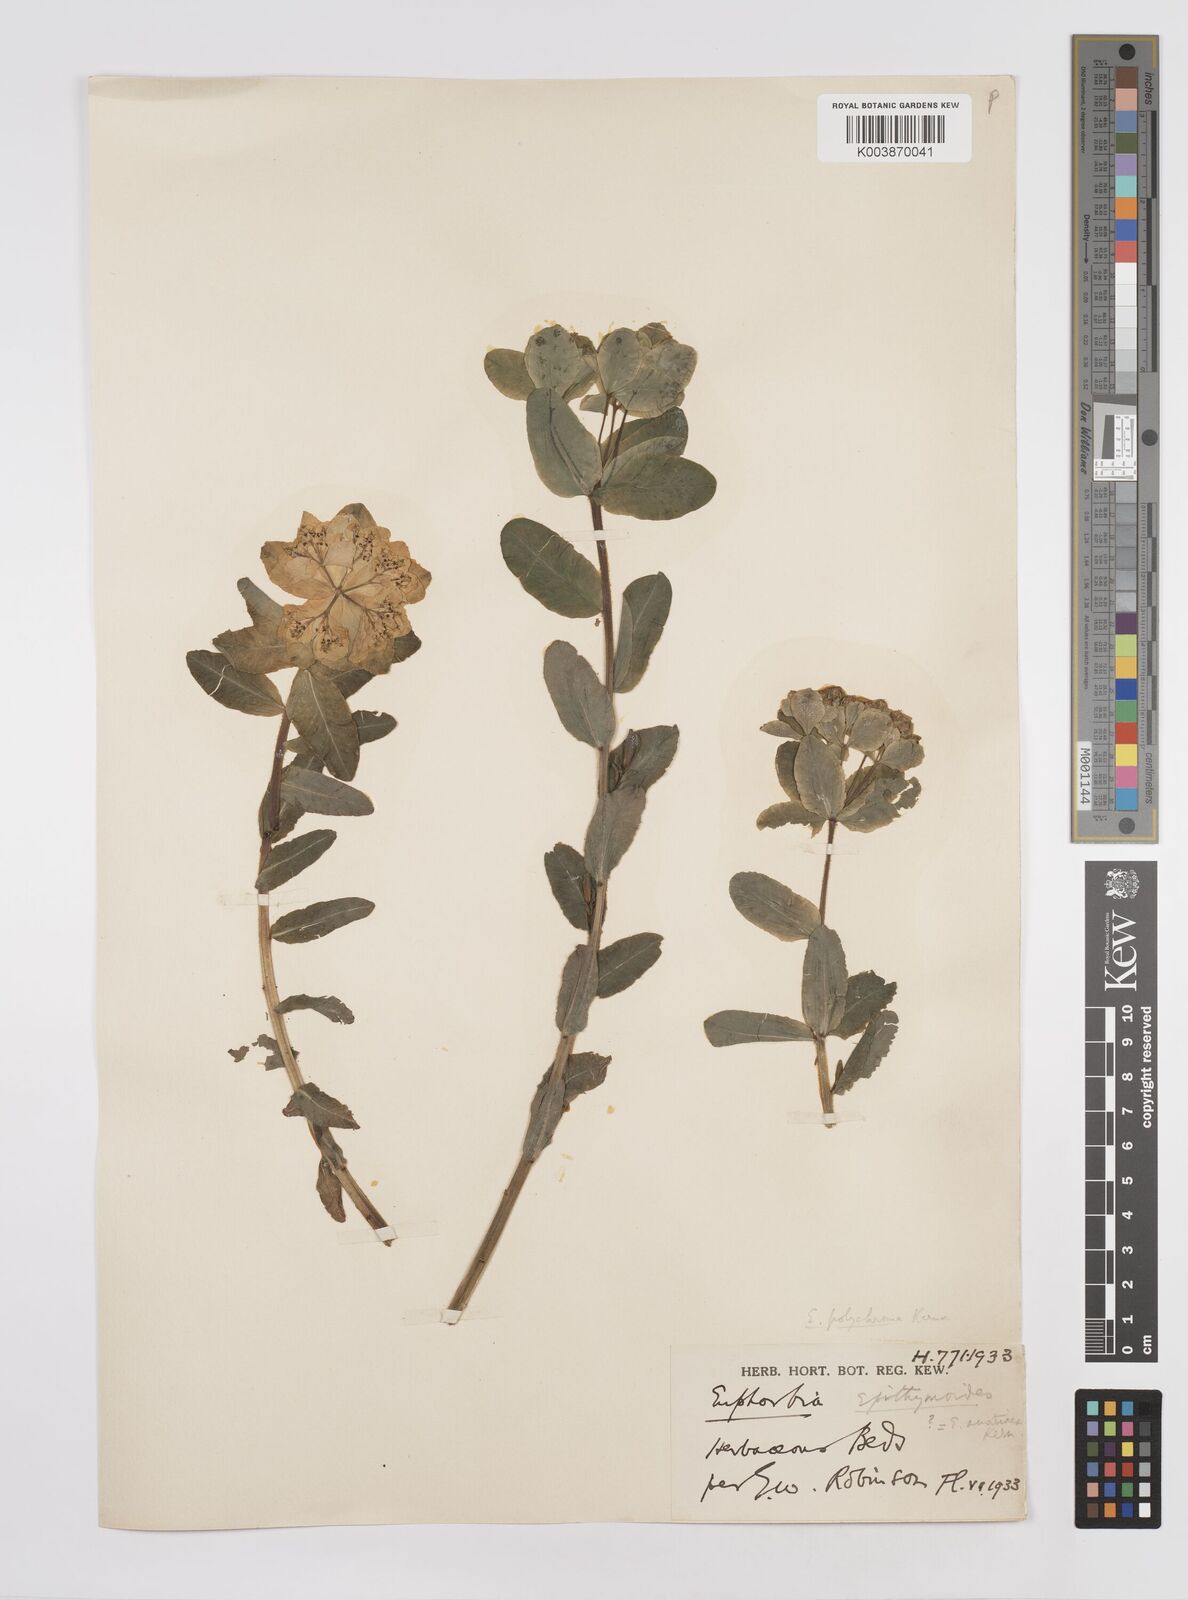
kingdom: Plantae
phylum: Tracheophyta
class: Magnoliopsida
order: Malpighiales
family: Euphorbiaceae
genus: Euphorbia
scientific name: Euphorbia epithymoides
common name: Cushion spurge
